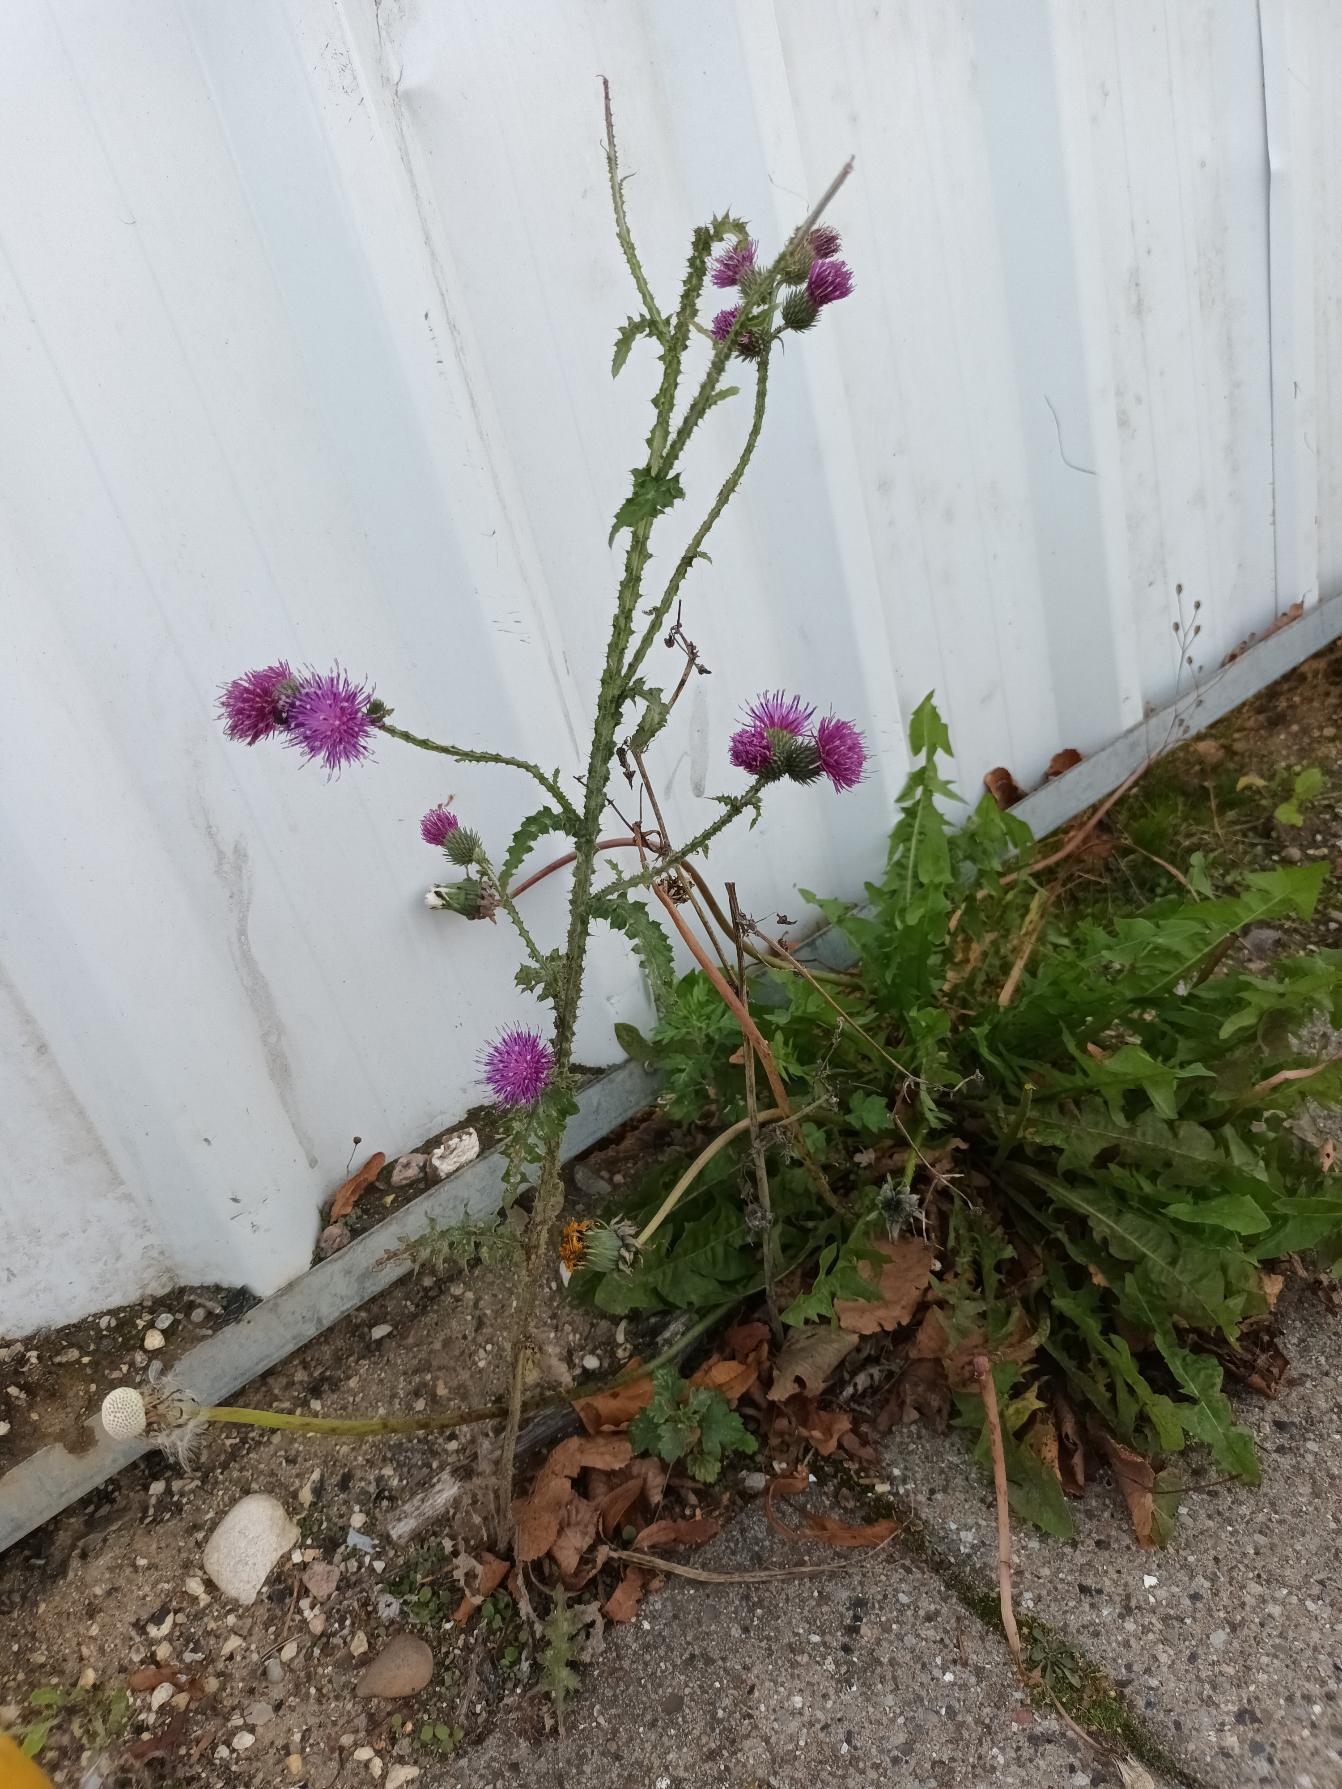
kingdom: Plantae
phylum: Tracheophyta
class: Magnoliopsida
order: Asterales
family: Asteraceae
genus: Carduus
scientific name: Carduus crispus
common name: Kruset tidsel
